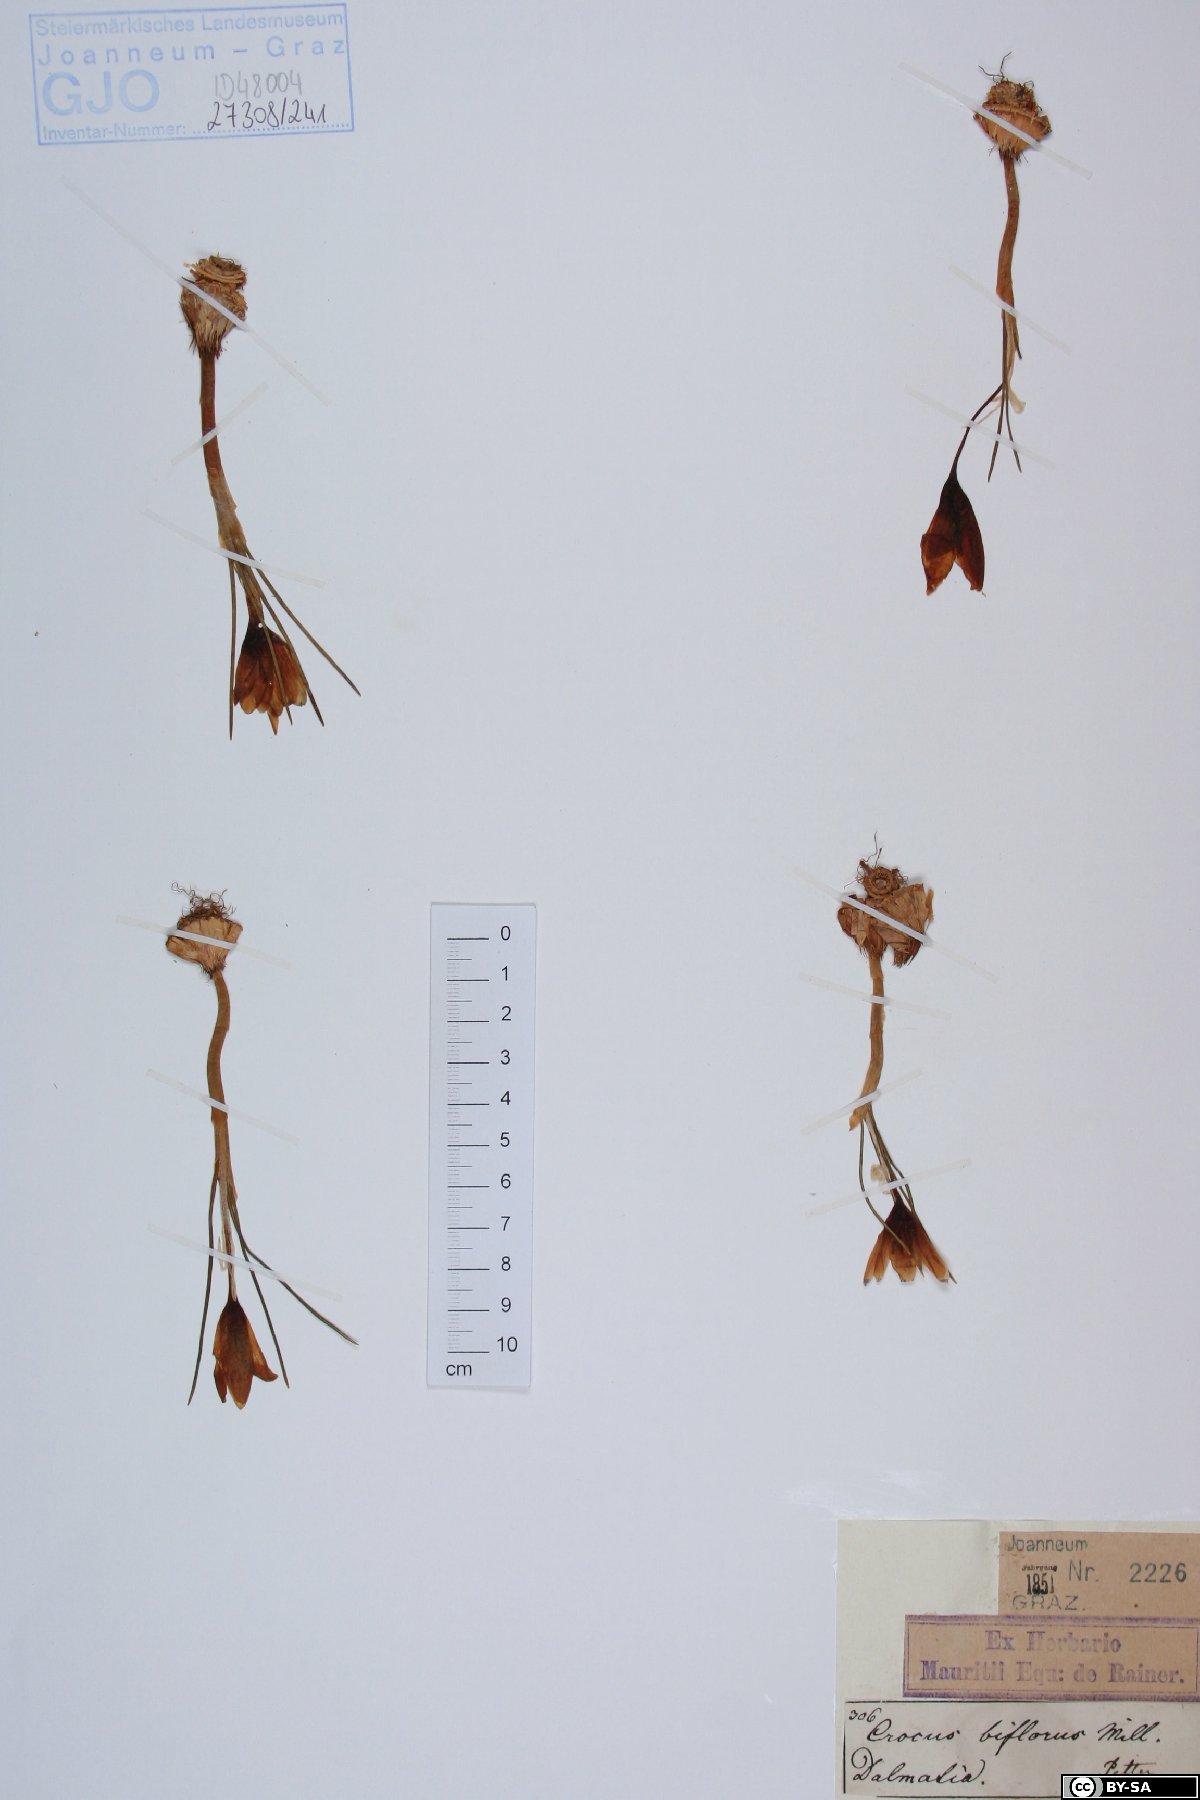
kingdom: Plantae
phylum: Tracheophyta
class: Liliopsida
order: Asparagales
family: Iridaceae
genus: Crocus
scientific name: Crocus biflorus
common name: Silvery crocus
